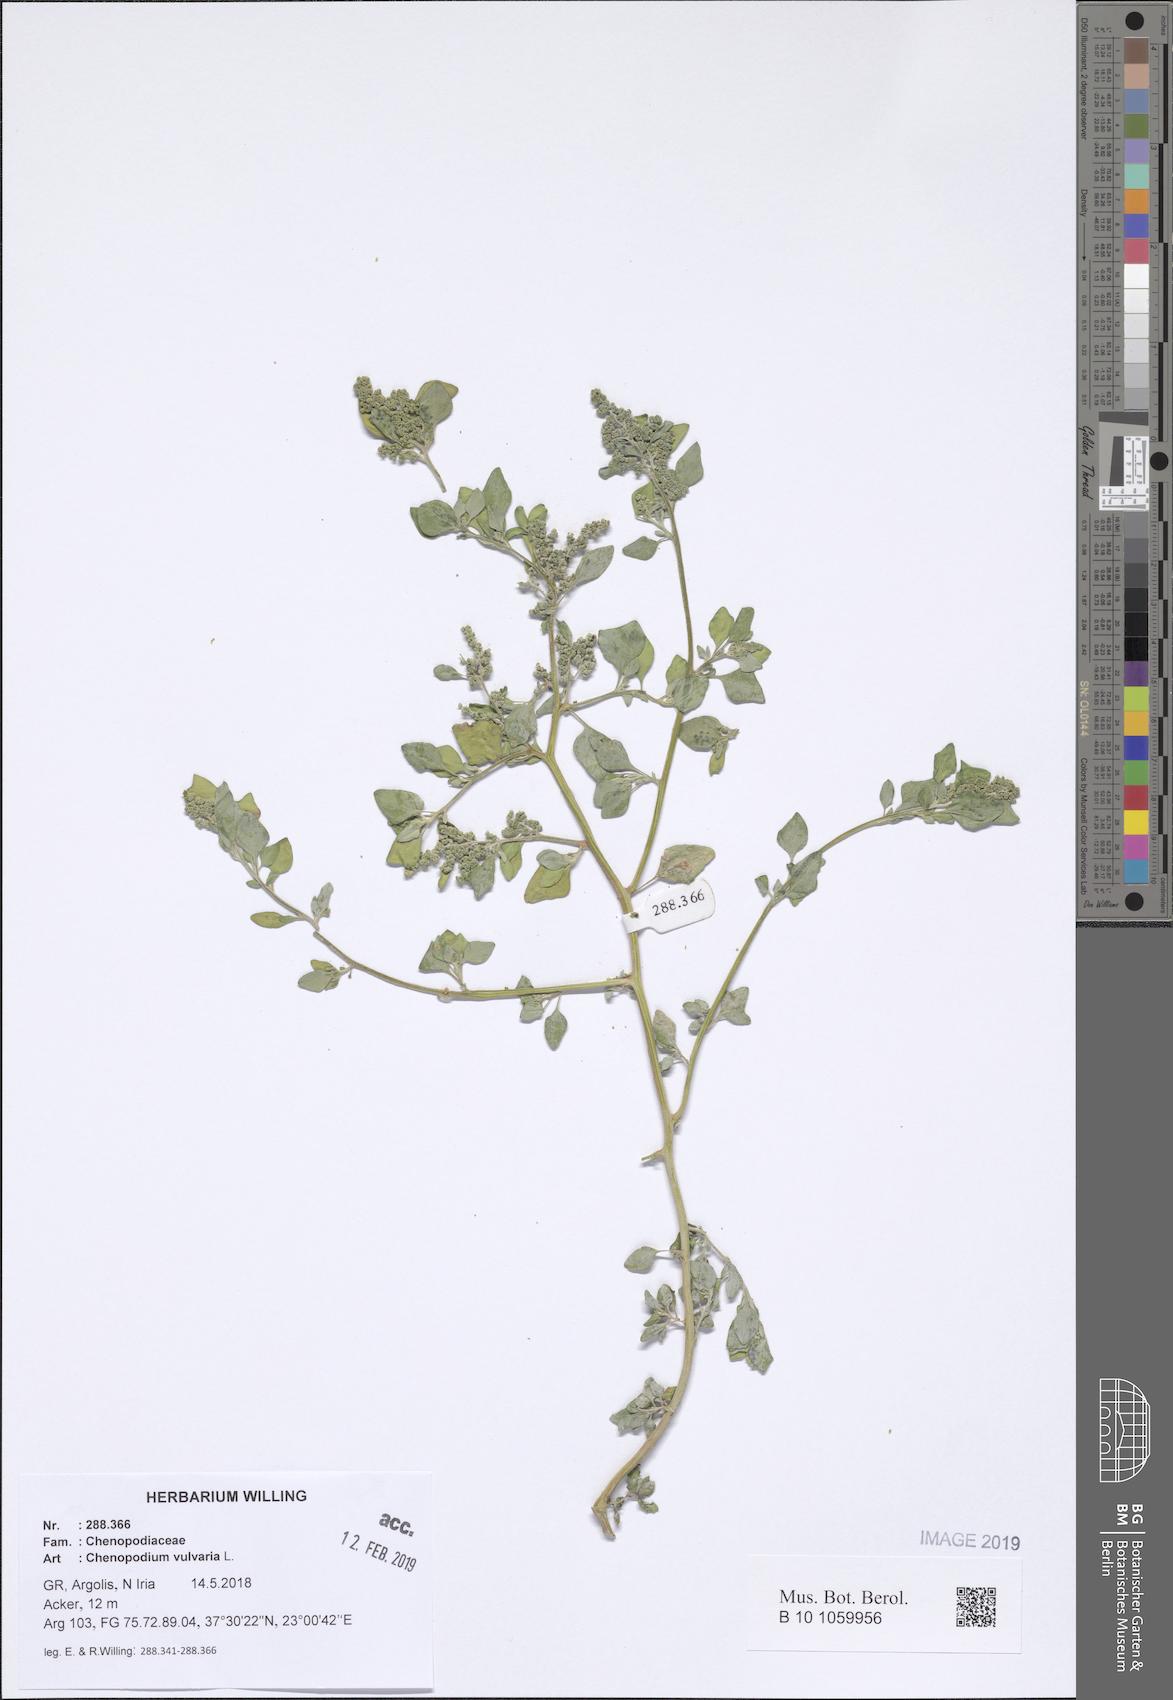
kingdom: Plantae
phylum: Tracheophyta
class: Magnoliopsida
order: Caryophyllales
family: Amaranthaceae
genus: Chenopodium
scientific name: Chenopodium vulvaria
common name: Stinking goosefoot
